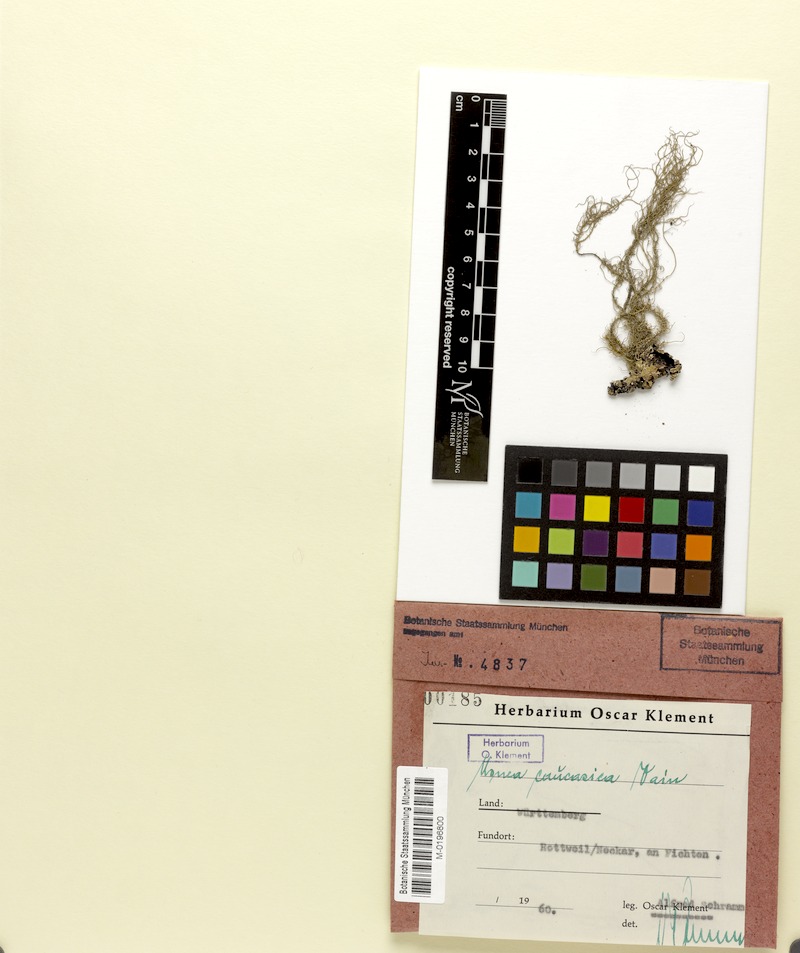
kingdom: Fungi
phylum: Ascomycota
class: Lecanoromycetes
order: Lecanorales
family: Parmeliaceae
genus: Usnea
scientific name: Usnea dasopoga
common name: Fishbone beard lichen
